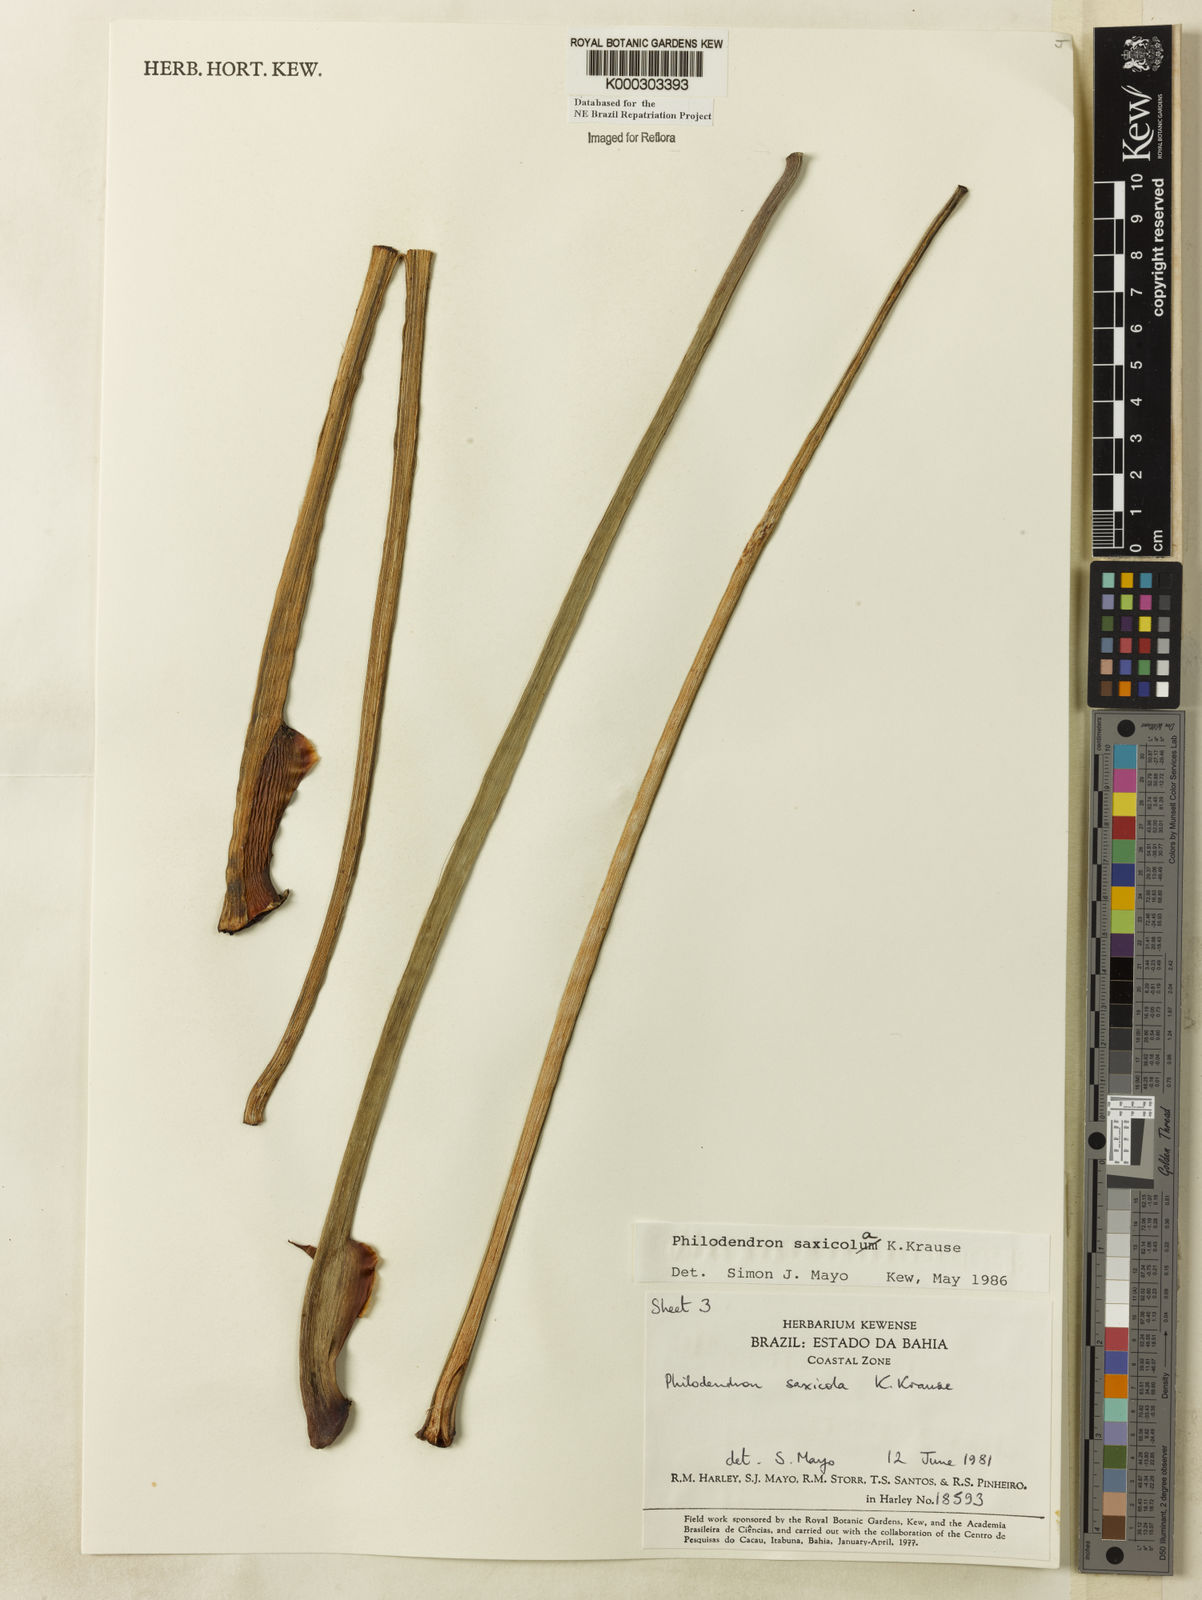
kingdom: Plantae
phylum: Tracheophyta
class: Liliopsida
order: Alismatales
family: Araceae
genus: Thaumatophyllum
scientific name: Thaumatophyllum saxicola
